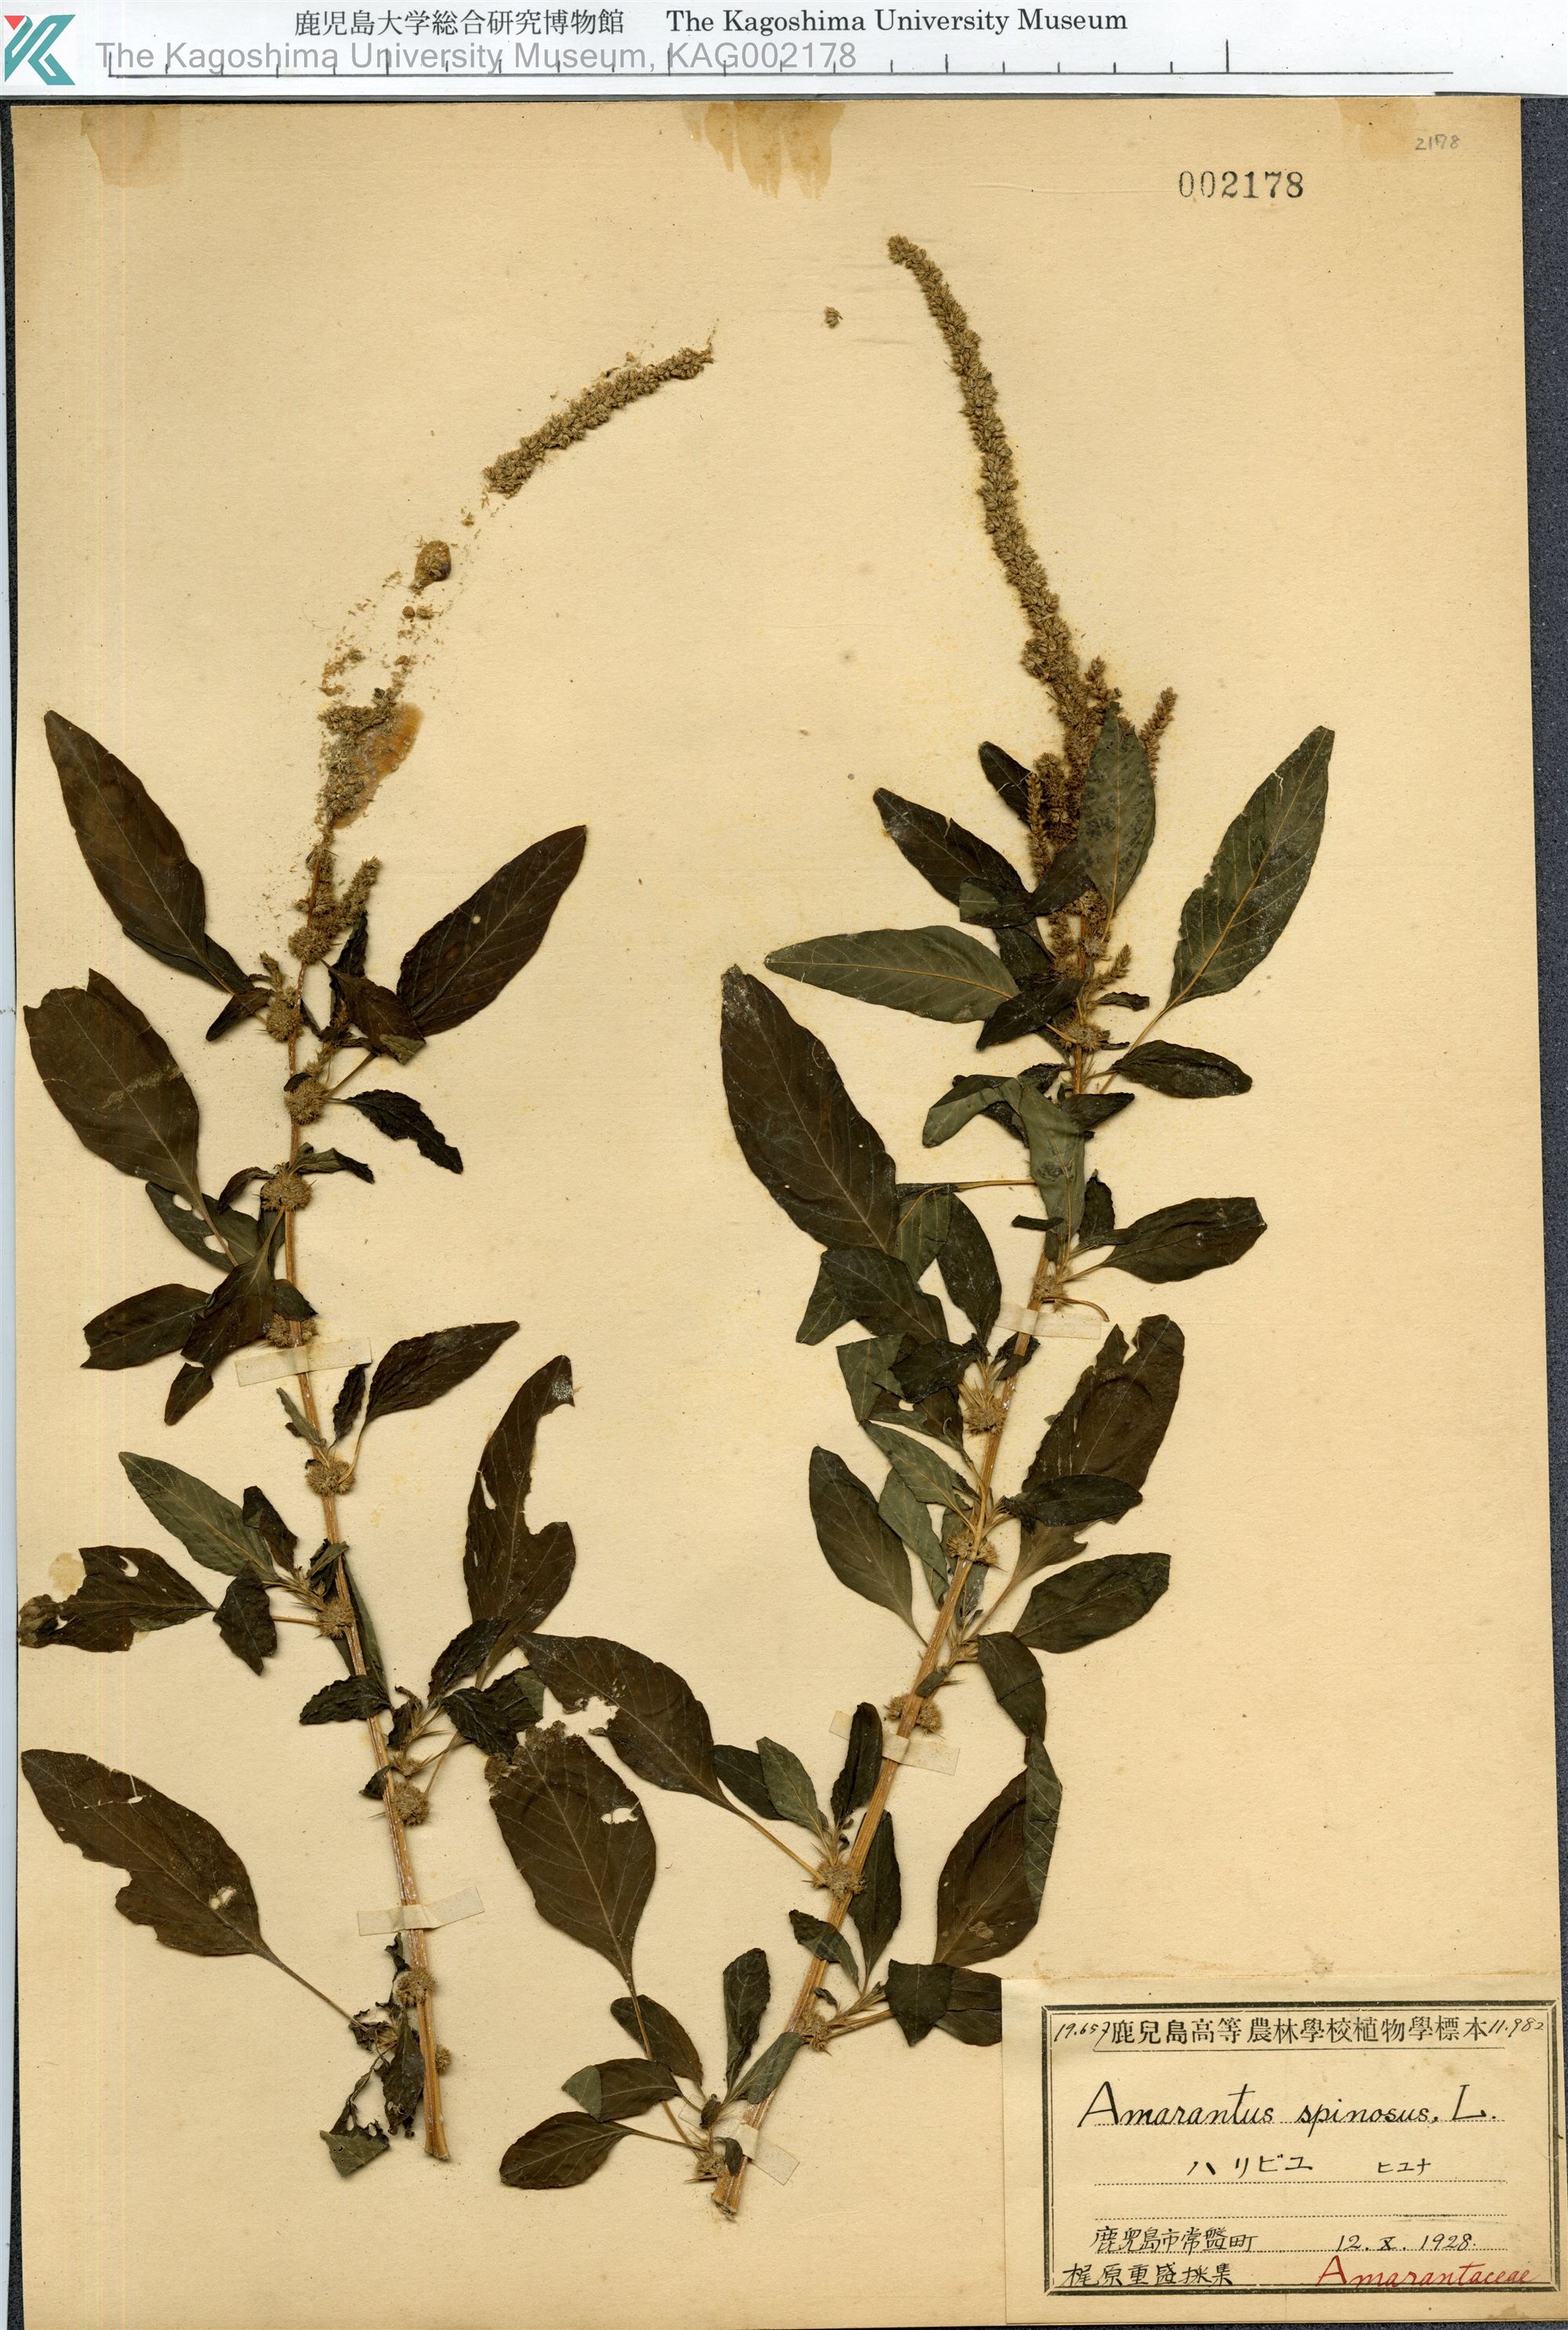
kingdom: Plantae
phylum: Tracheophyta
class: Magnoliopsida
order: Caryophyllales
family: Amaranthaceae
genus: Amaranthus
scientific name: Amaranthus spinosus
